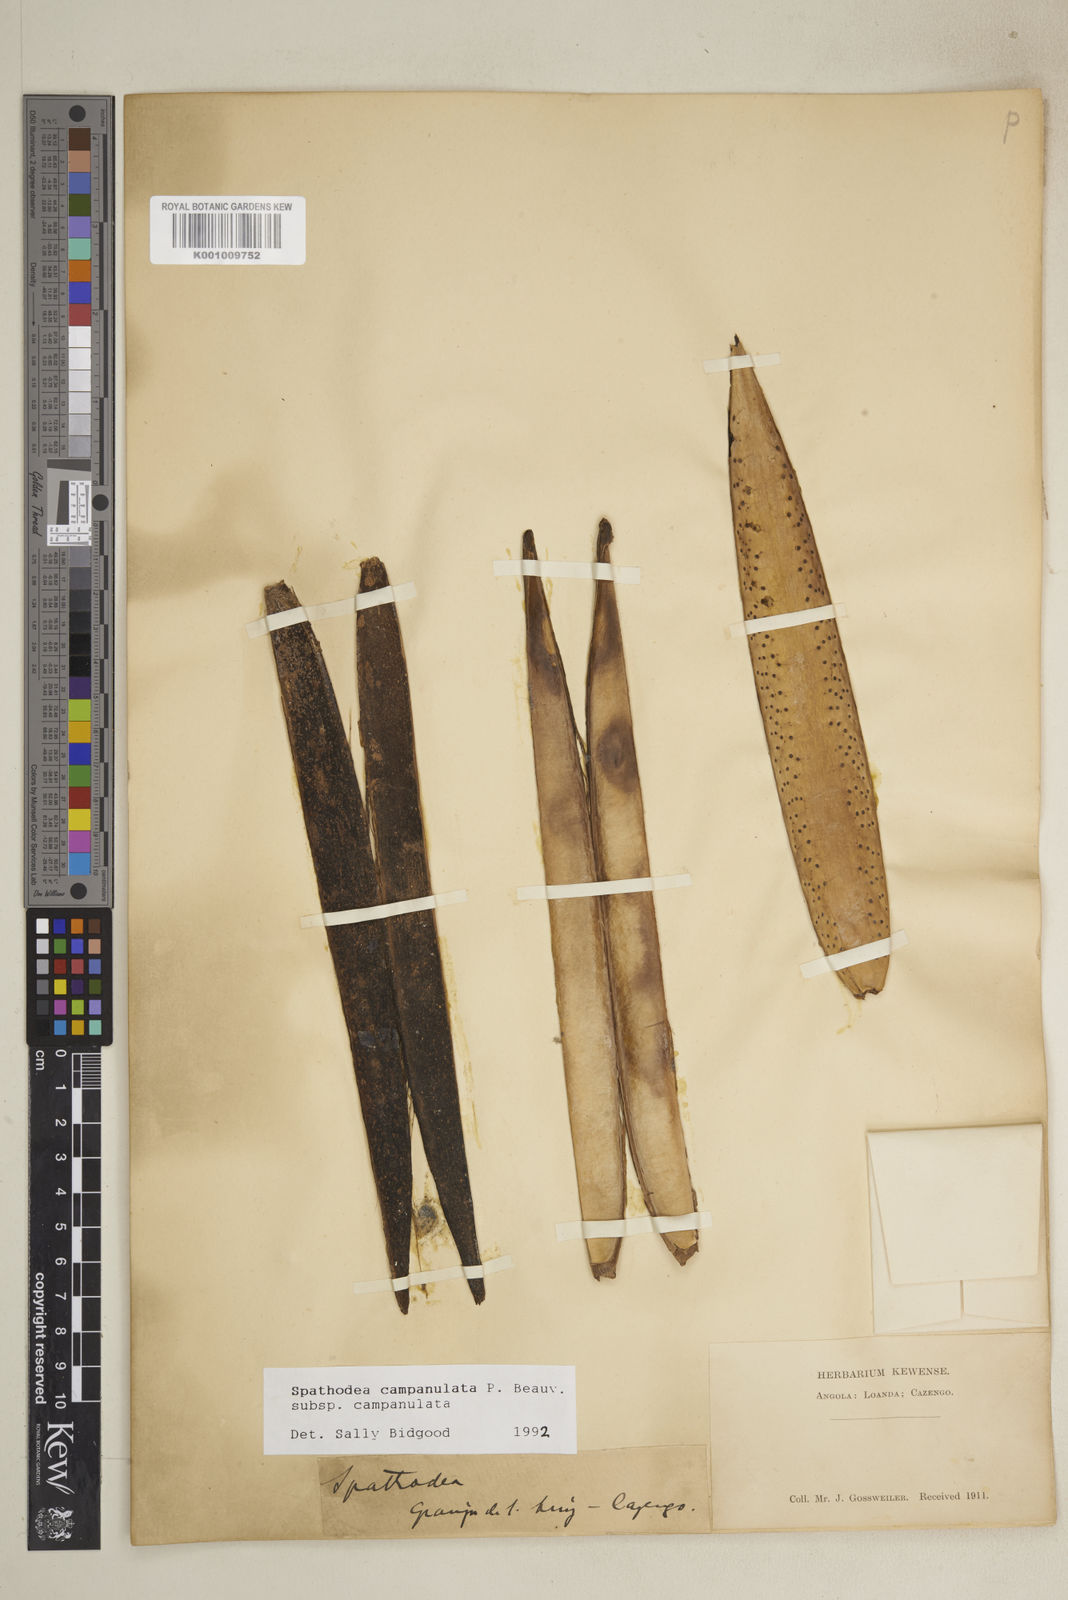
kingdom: Plantae
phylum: Tracheophyta
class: Magnoliopsida
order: Lamiales
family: Bignoniaceae
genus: Spathodea
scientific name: Spathodea campanulata
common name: African tuliptree
